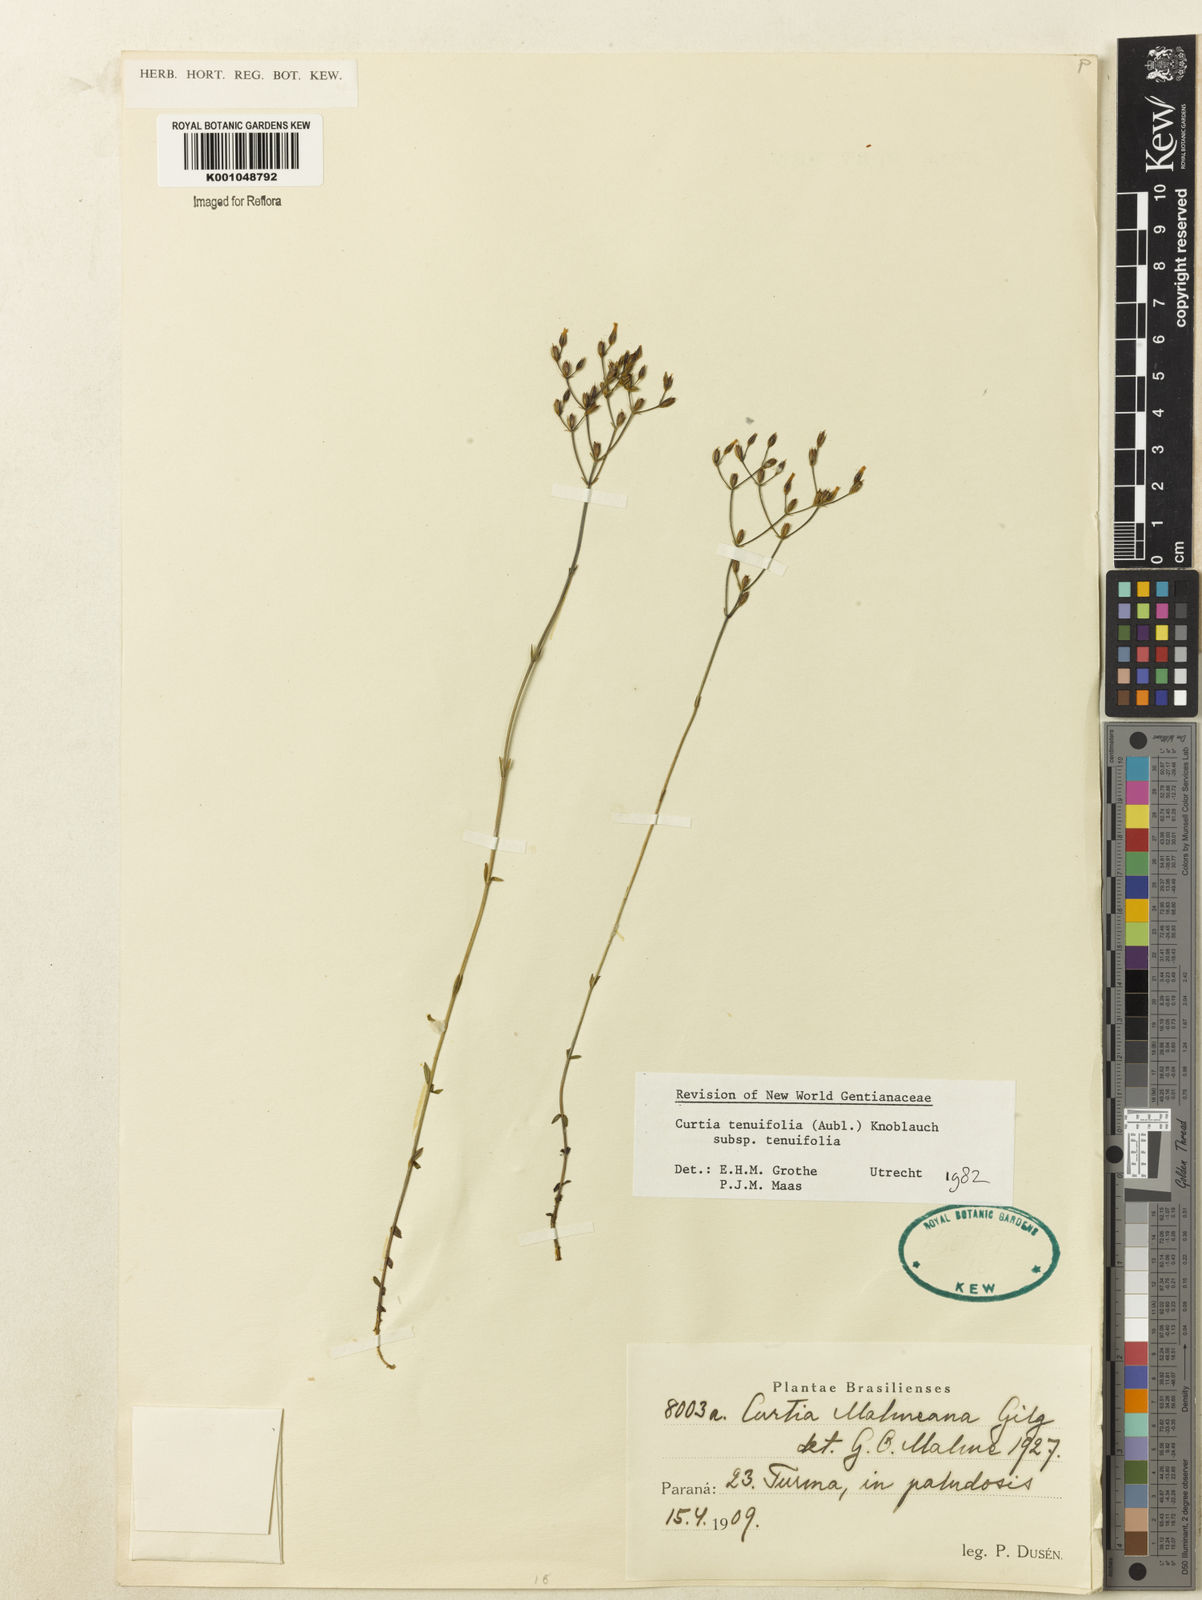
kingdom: Plantae
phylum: Tracheophyta
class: Magnoliopsida
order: Gentianales
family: Gentianaceae
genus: Curtia
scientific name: Curtia tenuifolia
